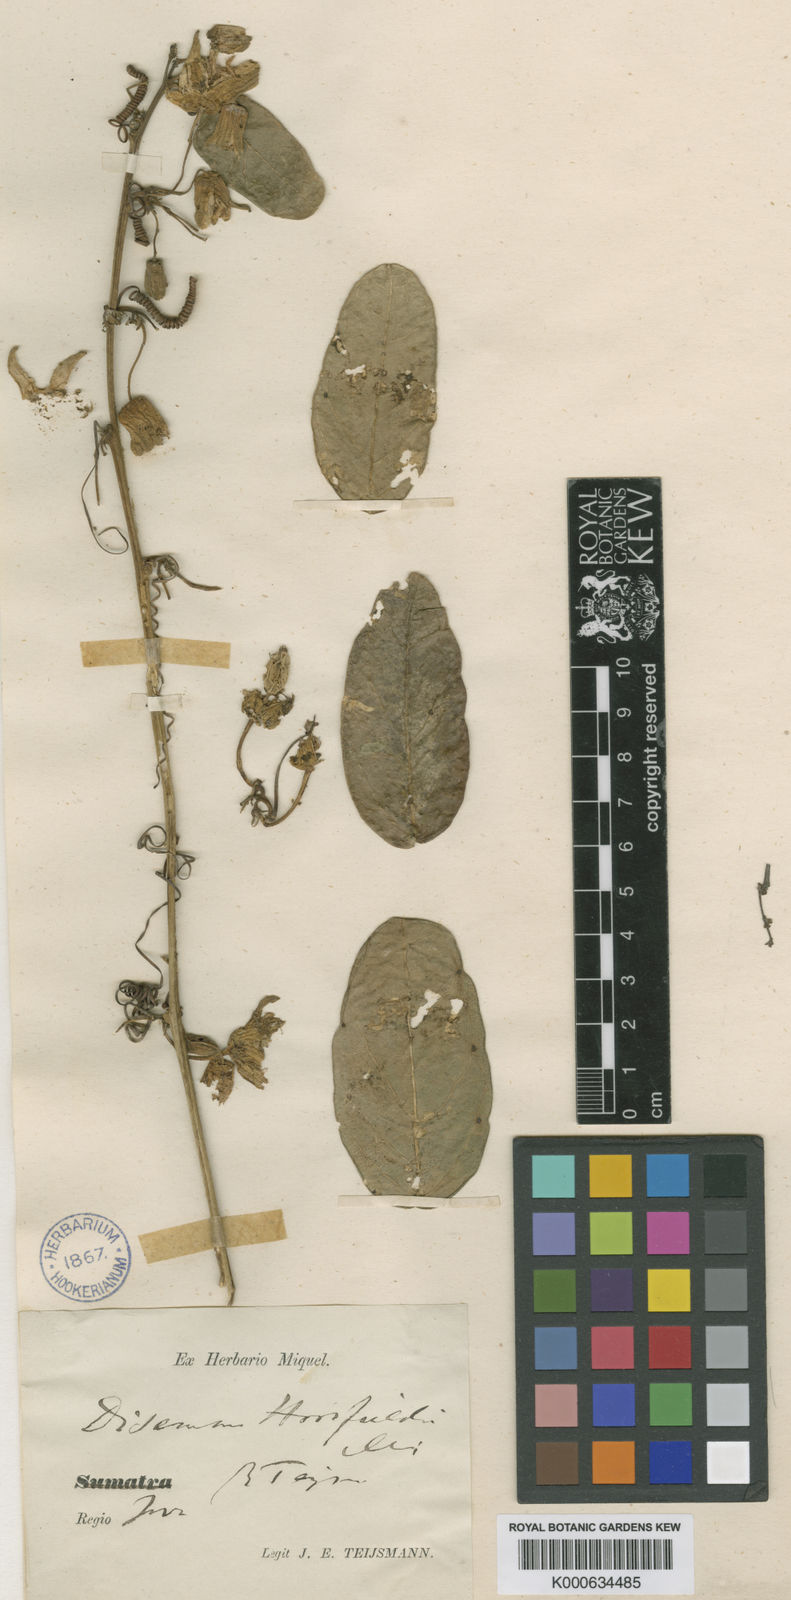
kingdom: Plantae
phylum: Tracheophyta
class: Magnoliopsida
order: Malpighiales
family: Passifloraceae
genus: Passiflora
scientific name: Passiflora cochinchinensis
